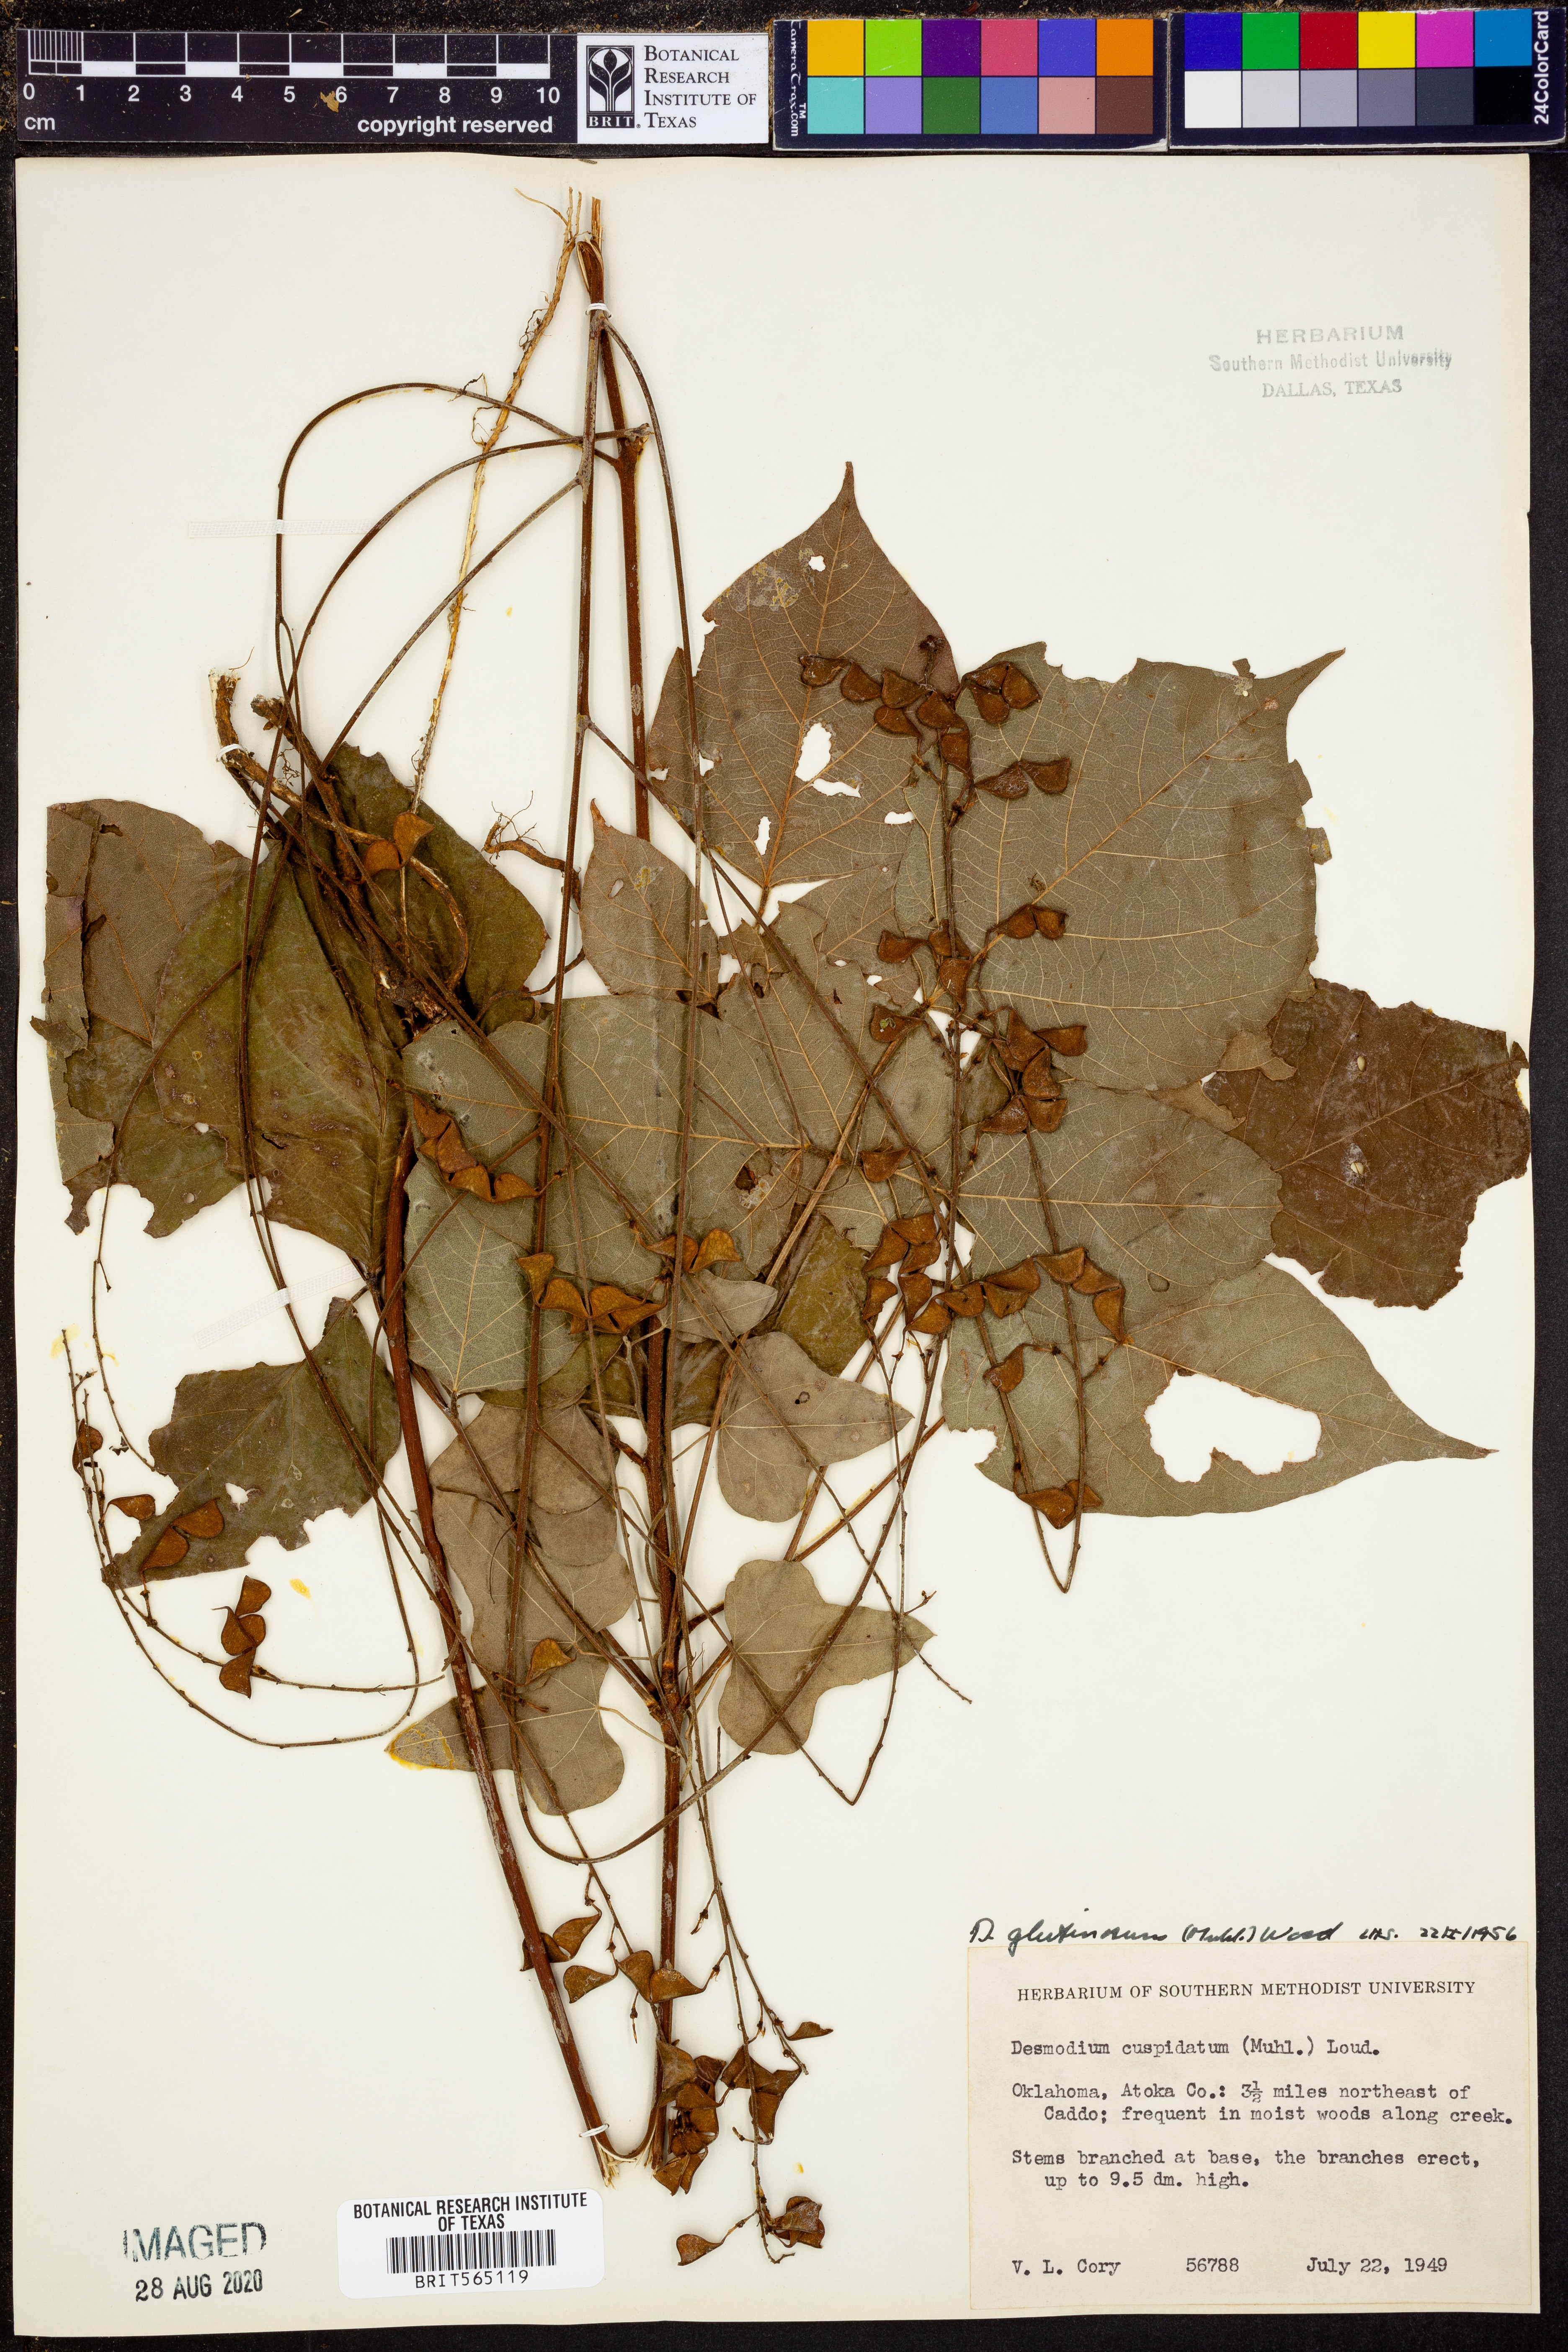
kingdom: Plantae
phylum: Tracheophyta
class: Magnoliopsida
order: Fabales
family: Fabaceae
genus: Hylodesmum
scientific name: Hylodesmum glutinosum
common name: Clustered-leaved tick-trefoil
